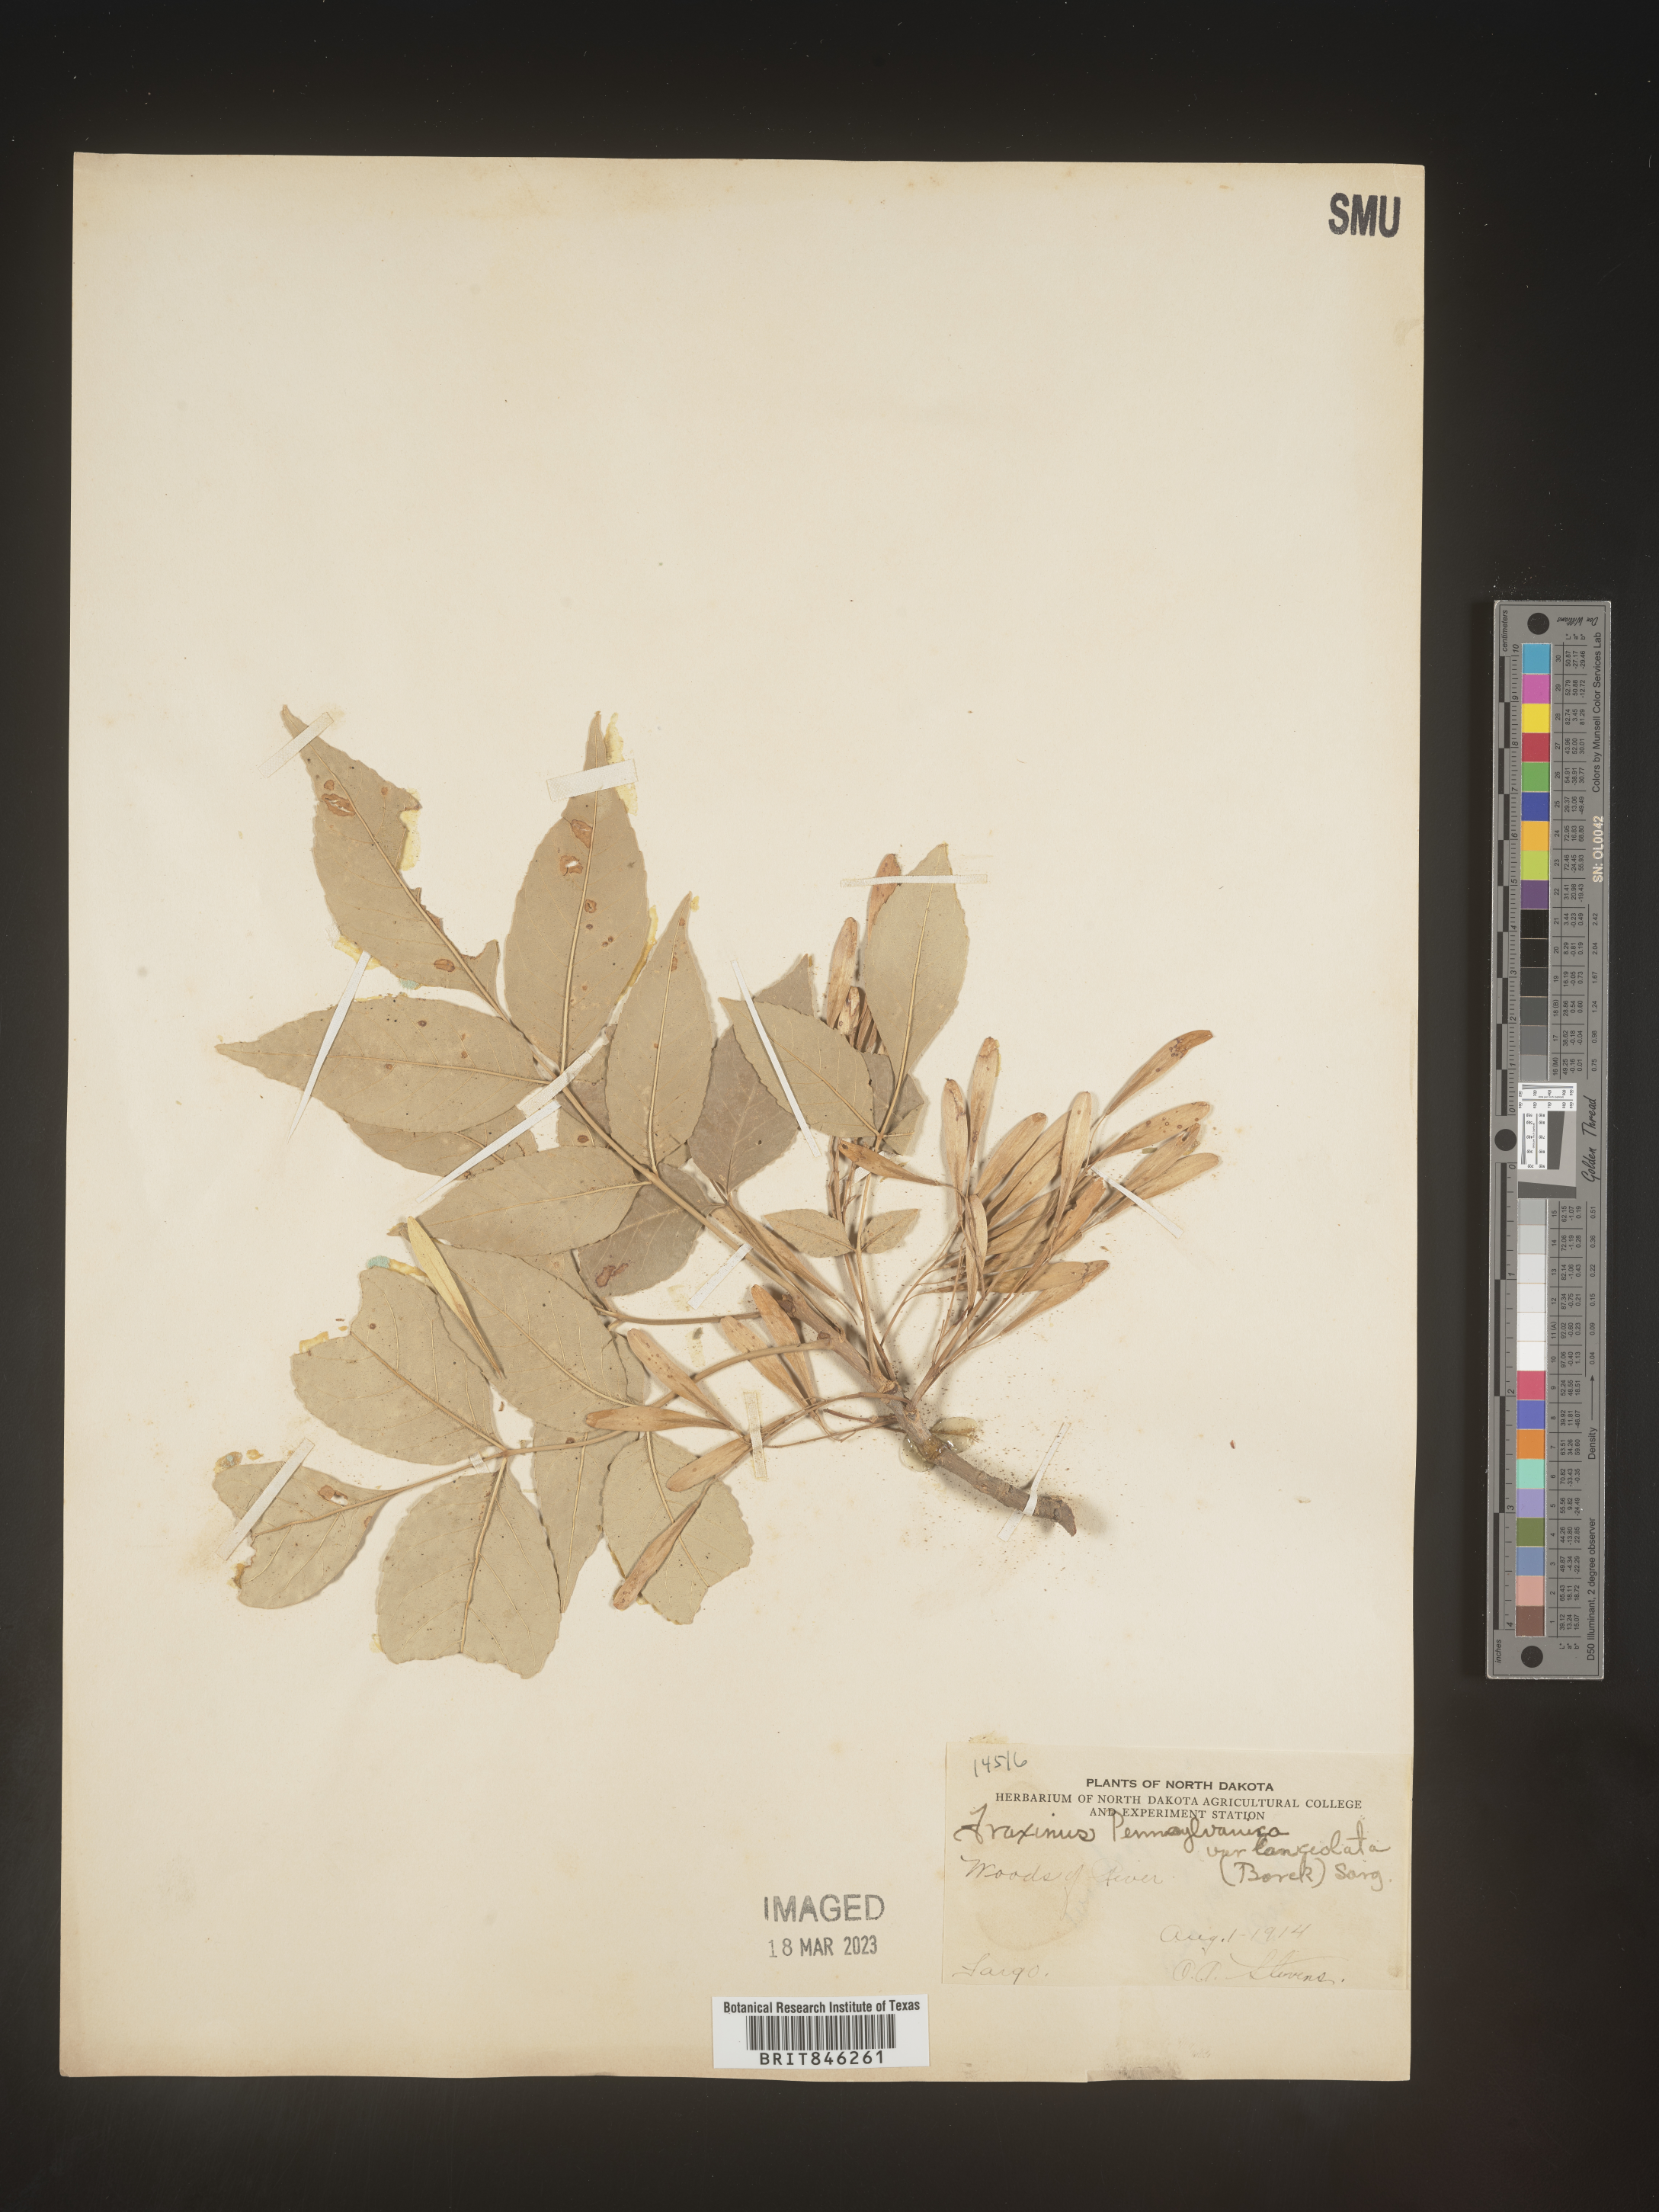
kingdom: Plantae
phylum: Tracheophyta
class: Magnoliopsida
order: Lamiales
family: Oleaceae
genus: Fraxinus
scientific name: Fraxinus pennsylvanica
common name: Green ash
